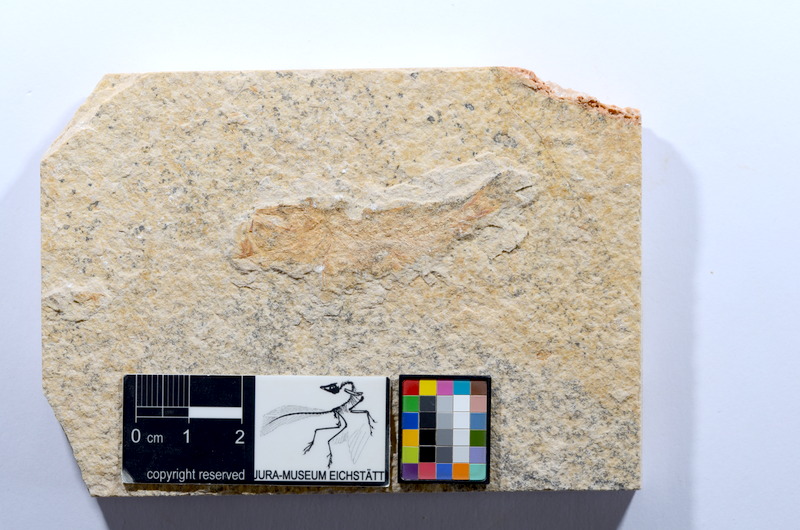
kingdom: Animalia
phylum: Chordata
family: Ascalaboidae
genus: Tharsis
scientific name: Tharsis dubius
